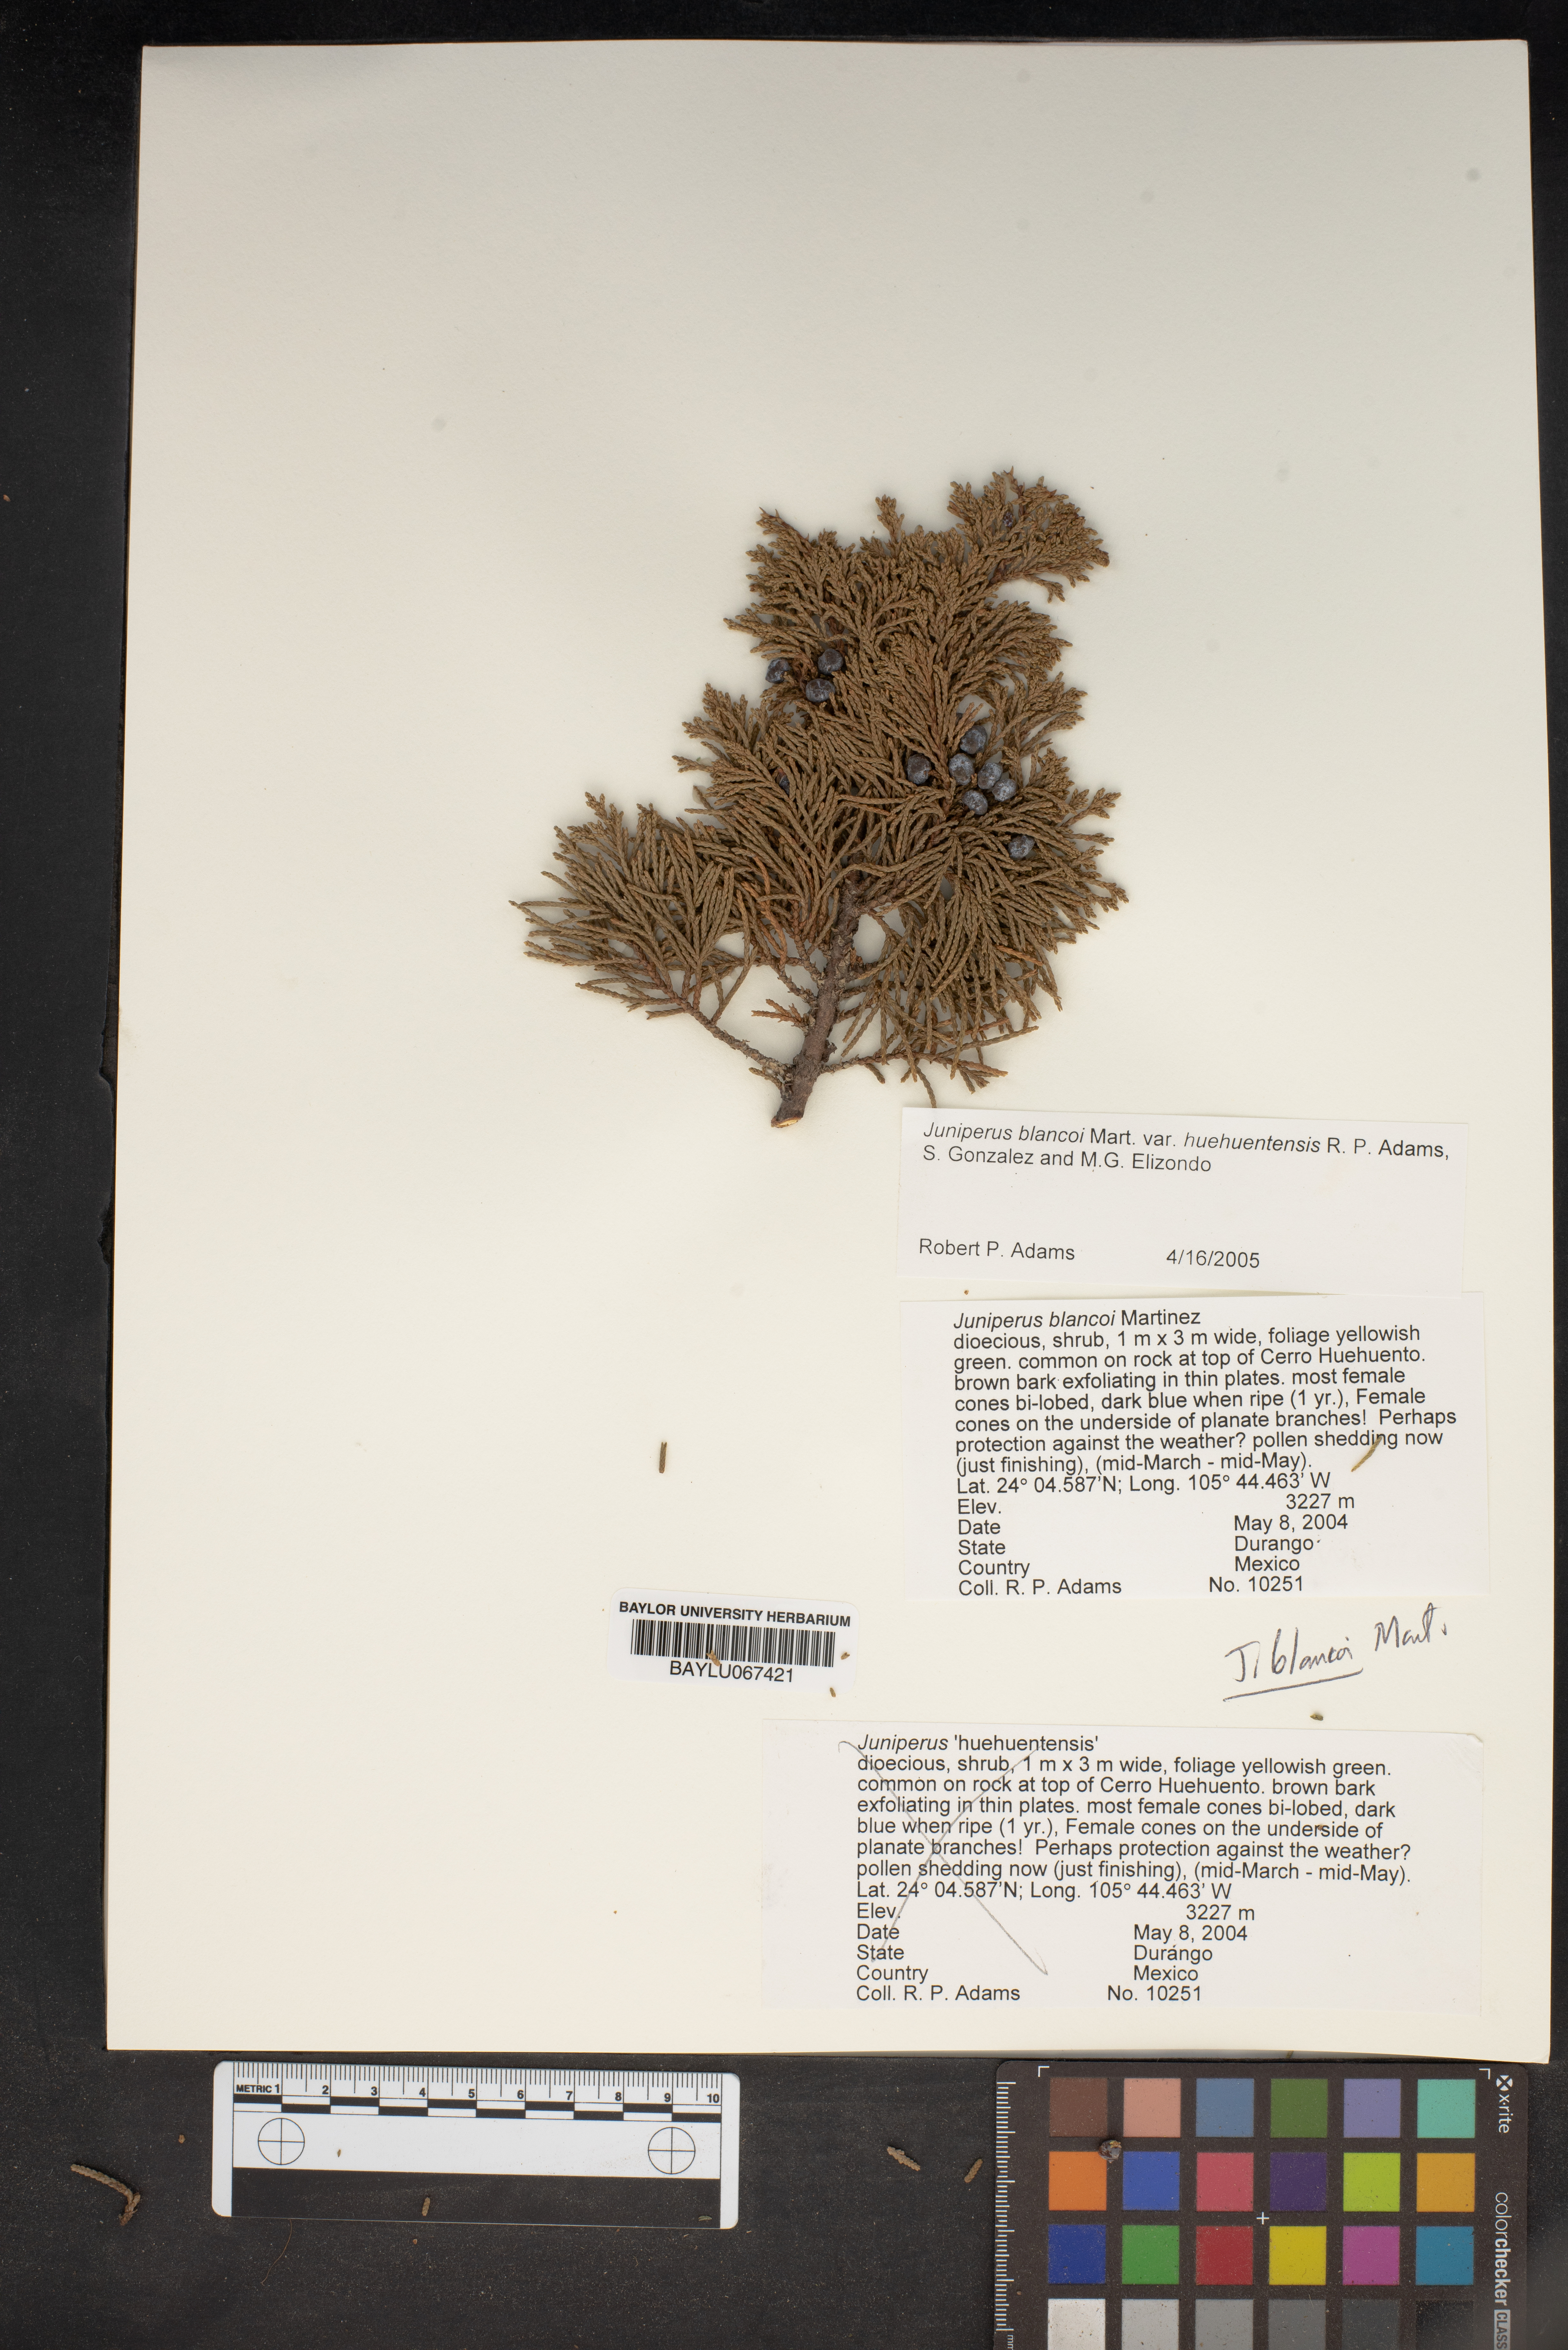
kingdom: Plantae
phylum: Tracheophyta
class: Pinopsida
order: Pinales
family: Cupressaceae
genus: Juniperus
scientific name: Juniperus blancoi
